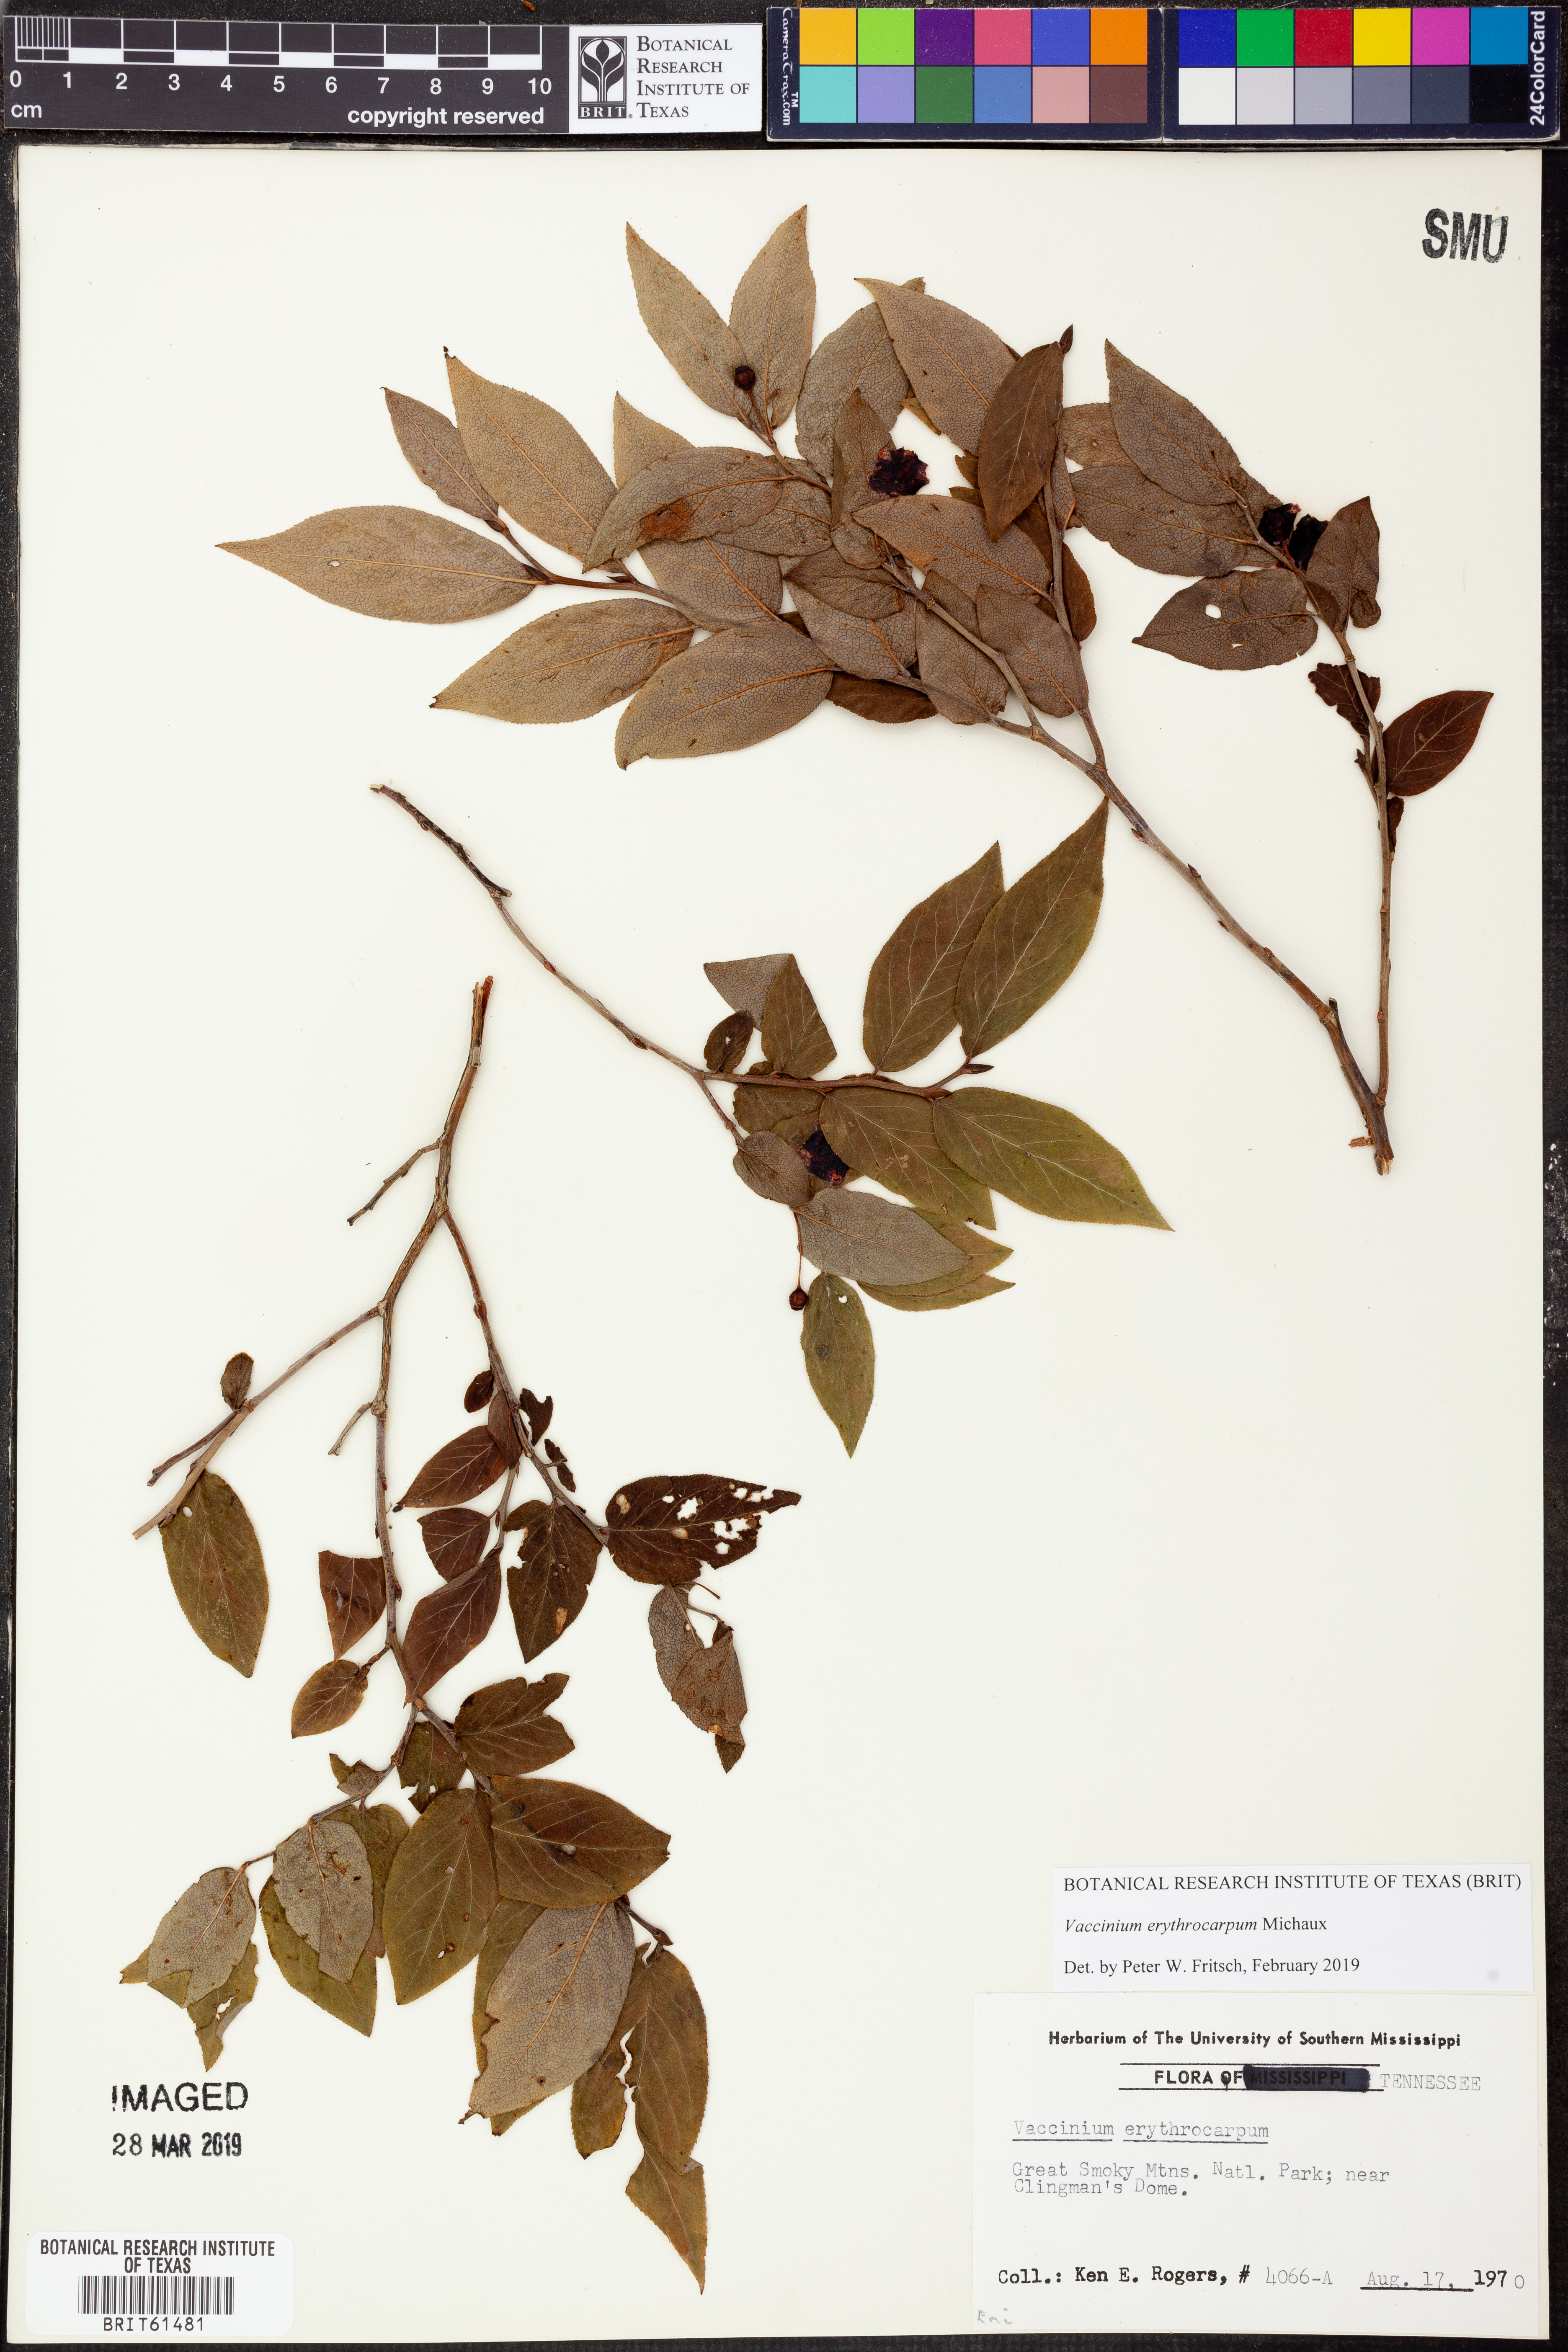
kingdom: Plantae
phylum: Tracheophyta
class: Magnoliopsida
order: Ericales
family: Ericaceae
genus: Vaccinium
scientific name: Vaccinium erythrocarpum
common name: Bearberry
